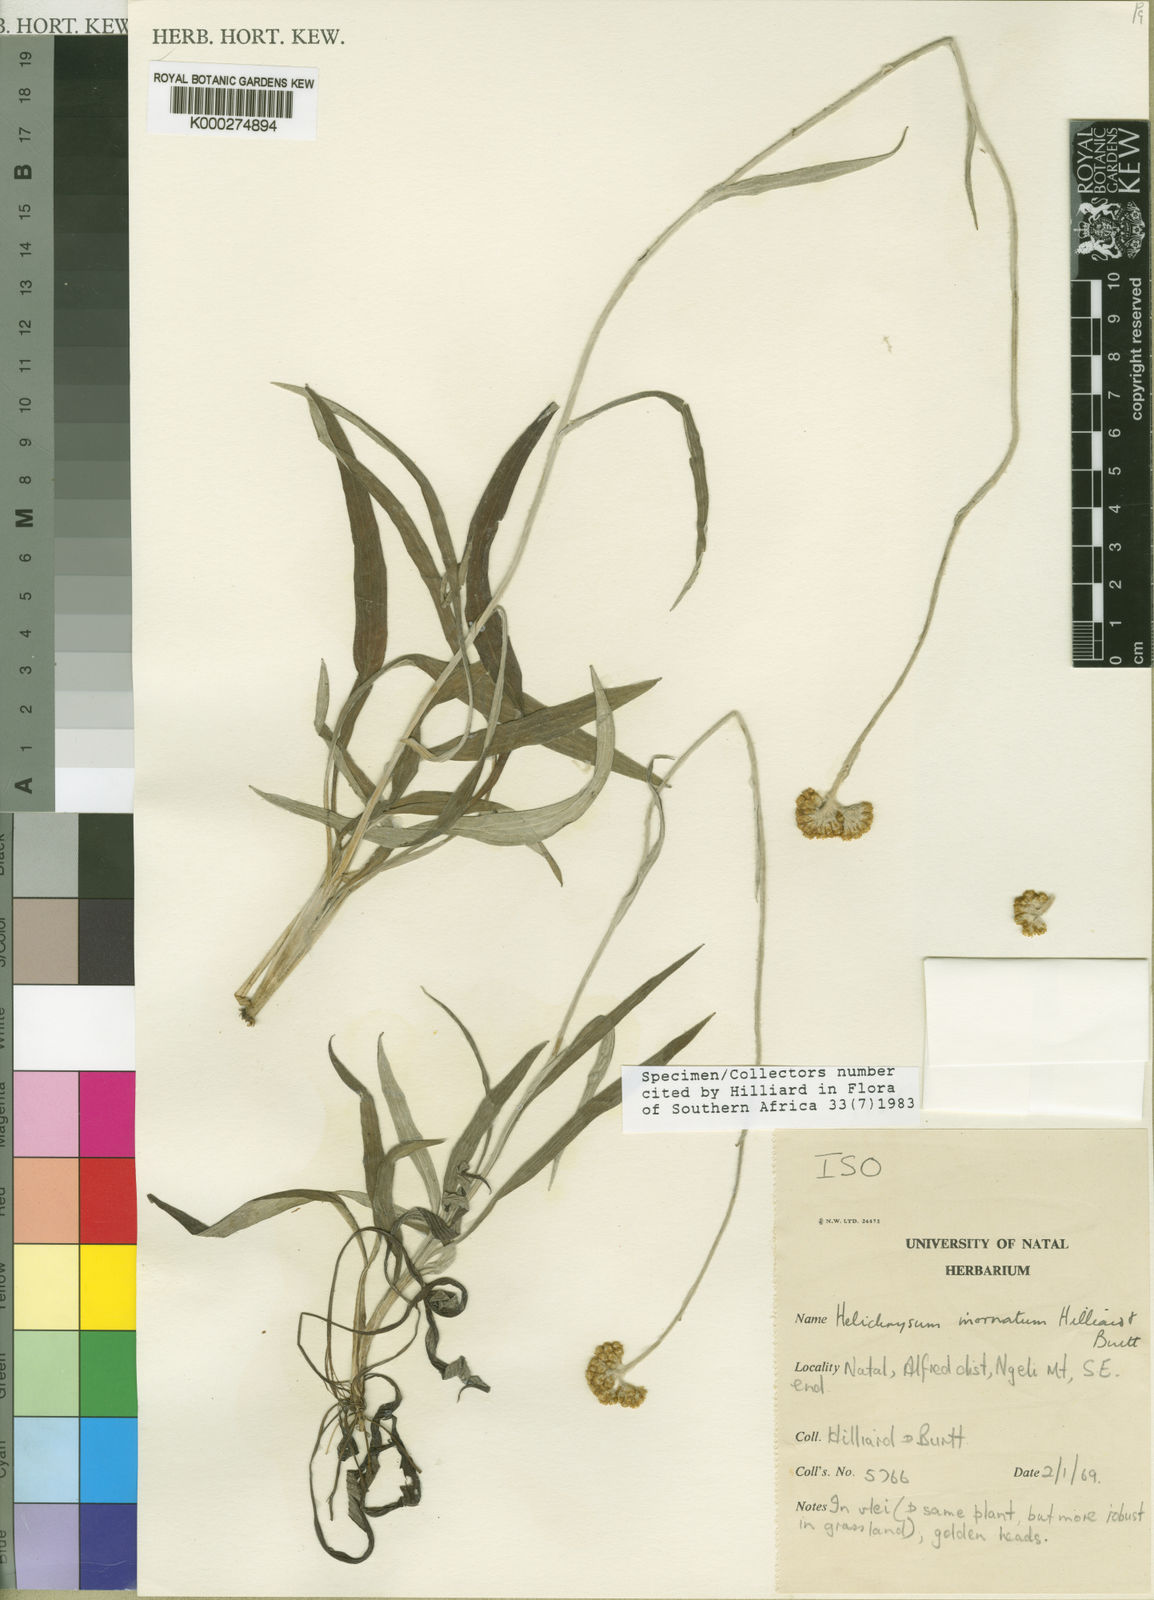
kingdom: Plantae
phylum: Tracheophyta
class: Magnoliopsida
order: Asterales
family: Asteraceae
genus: Helichrysum
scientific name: Helichrysum inornatum
